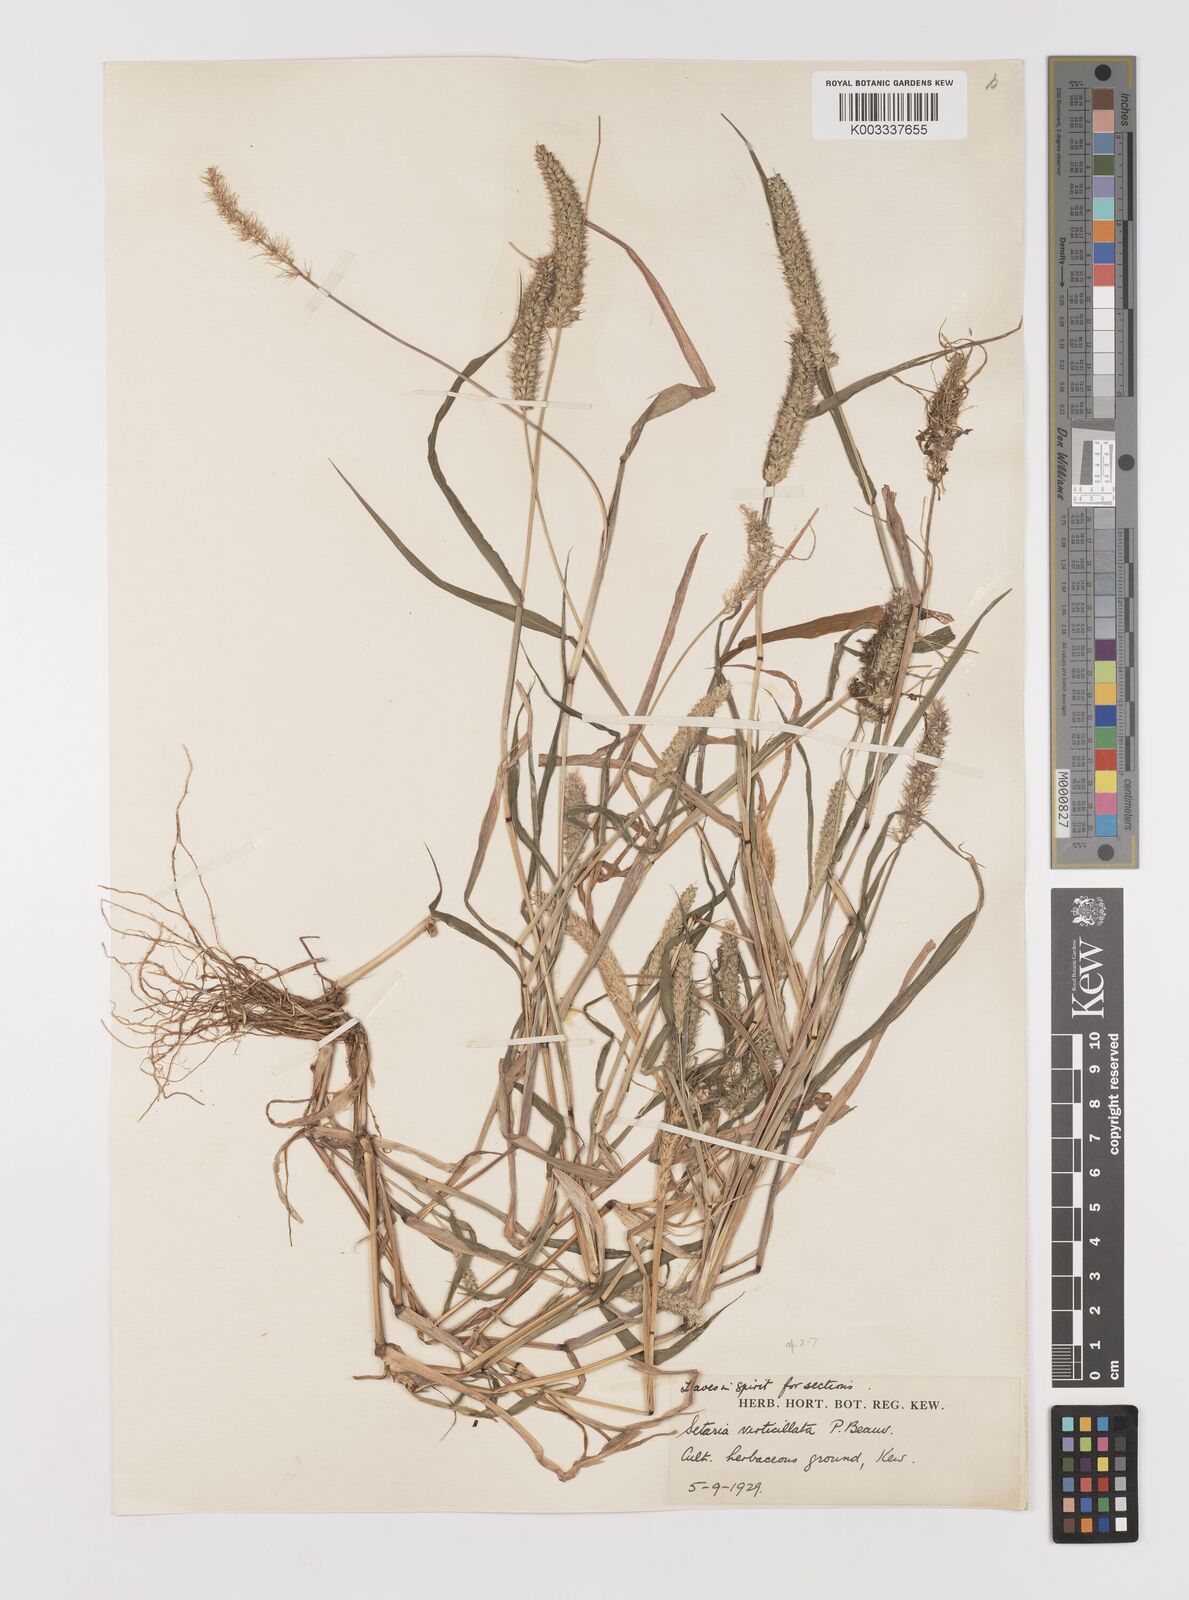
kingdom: Plantae
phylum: Tracheophyta
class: Liliopsida
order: Poales
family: Poaceae
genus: Setaria
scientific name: Setaria verticillata
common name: Hooked bristlegrass
